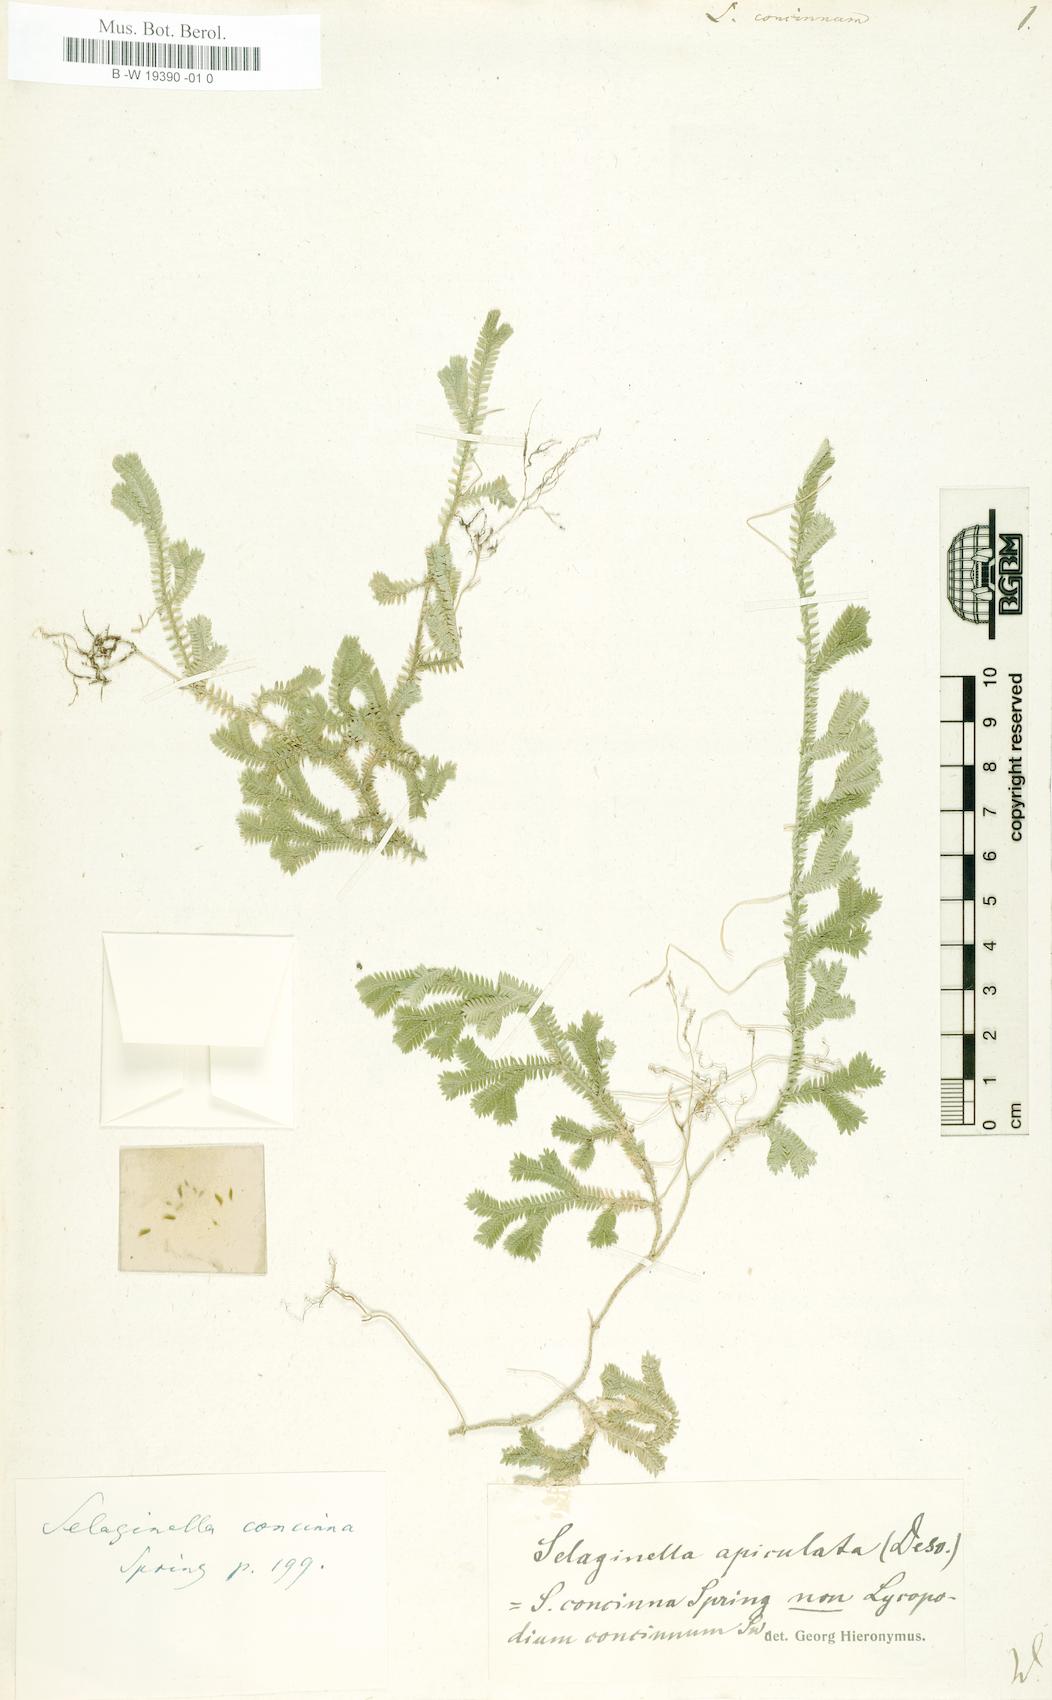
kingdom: Plantae
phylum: Tracheophyta
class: Lycopodiopsida
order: Lycopodiales
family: Lycopodiaceae
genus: Lycopodium
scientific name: Lycopodium clavatum
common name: Stag's-horn clubmoss
